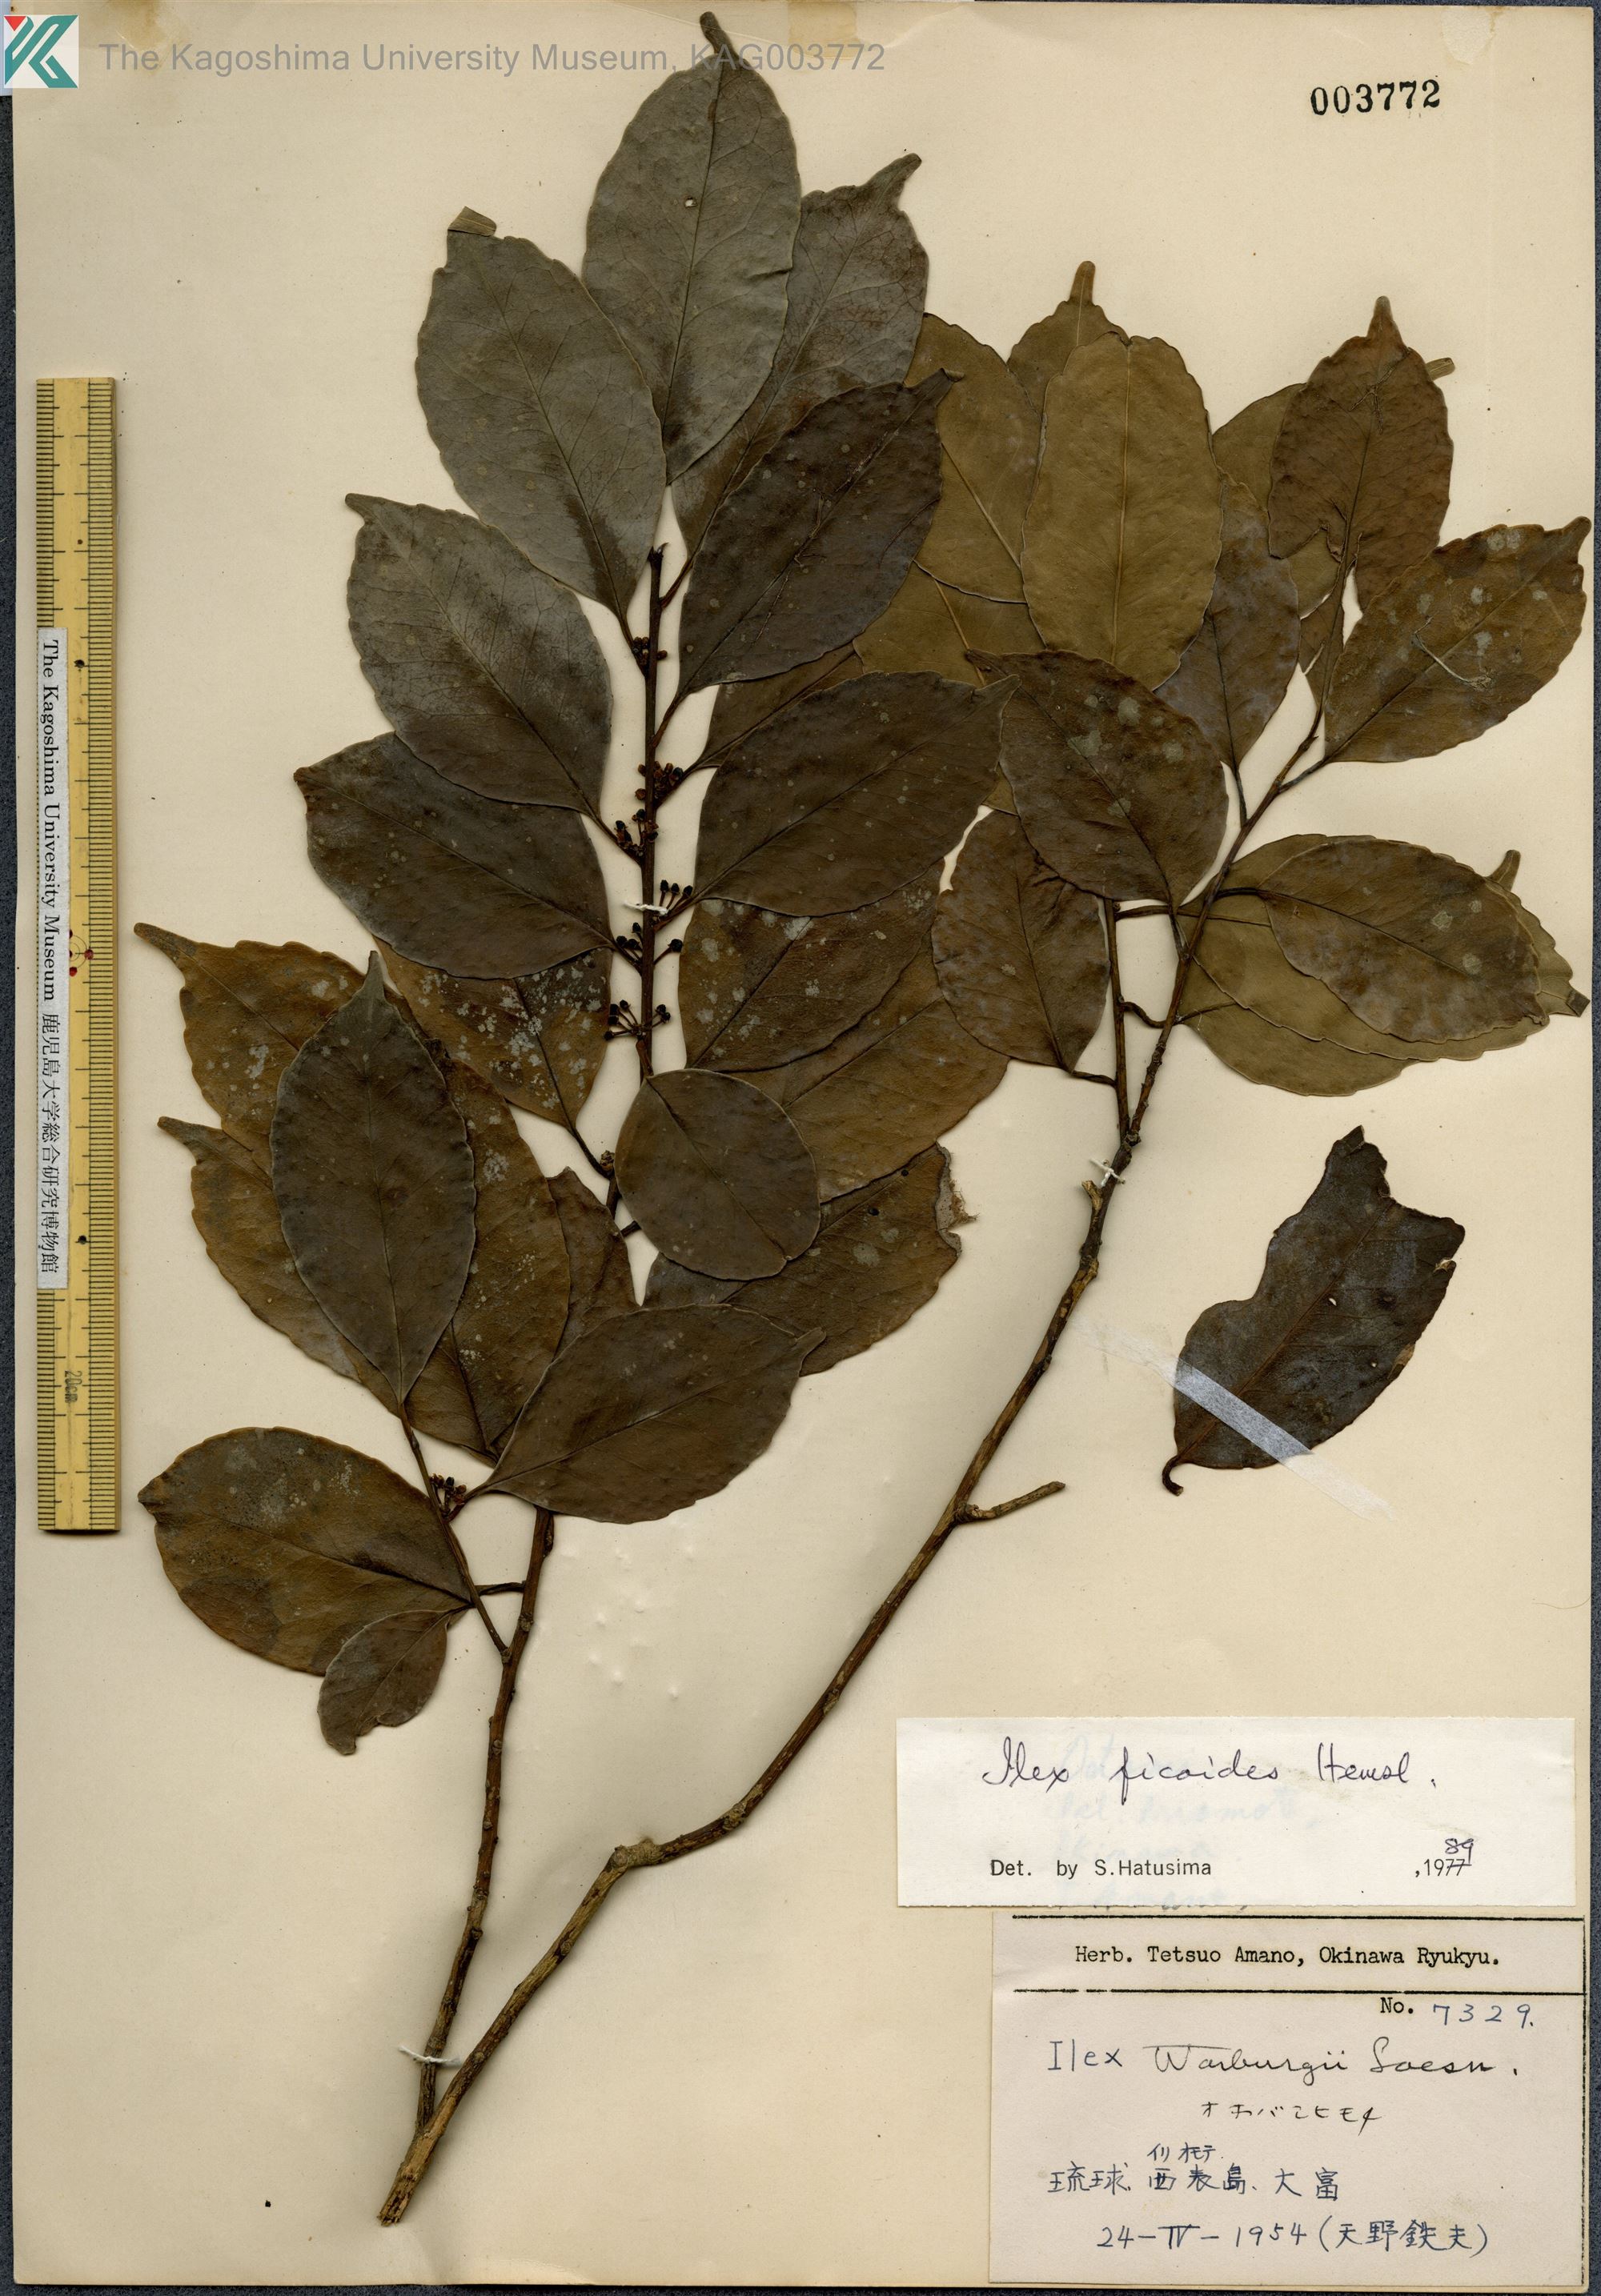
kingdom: Plantae
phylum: Tracheophyta
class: Magnoliopsida
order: Aquifoliales
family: Aquifoliaceae
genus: Ilex
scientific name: Ilex warburgii
